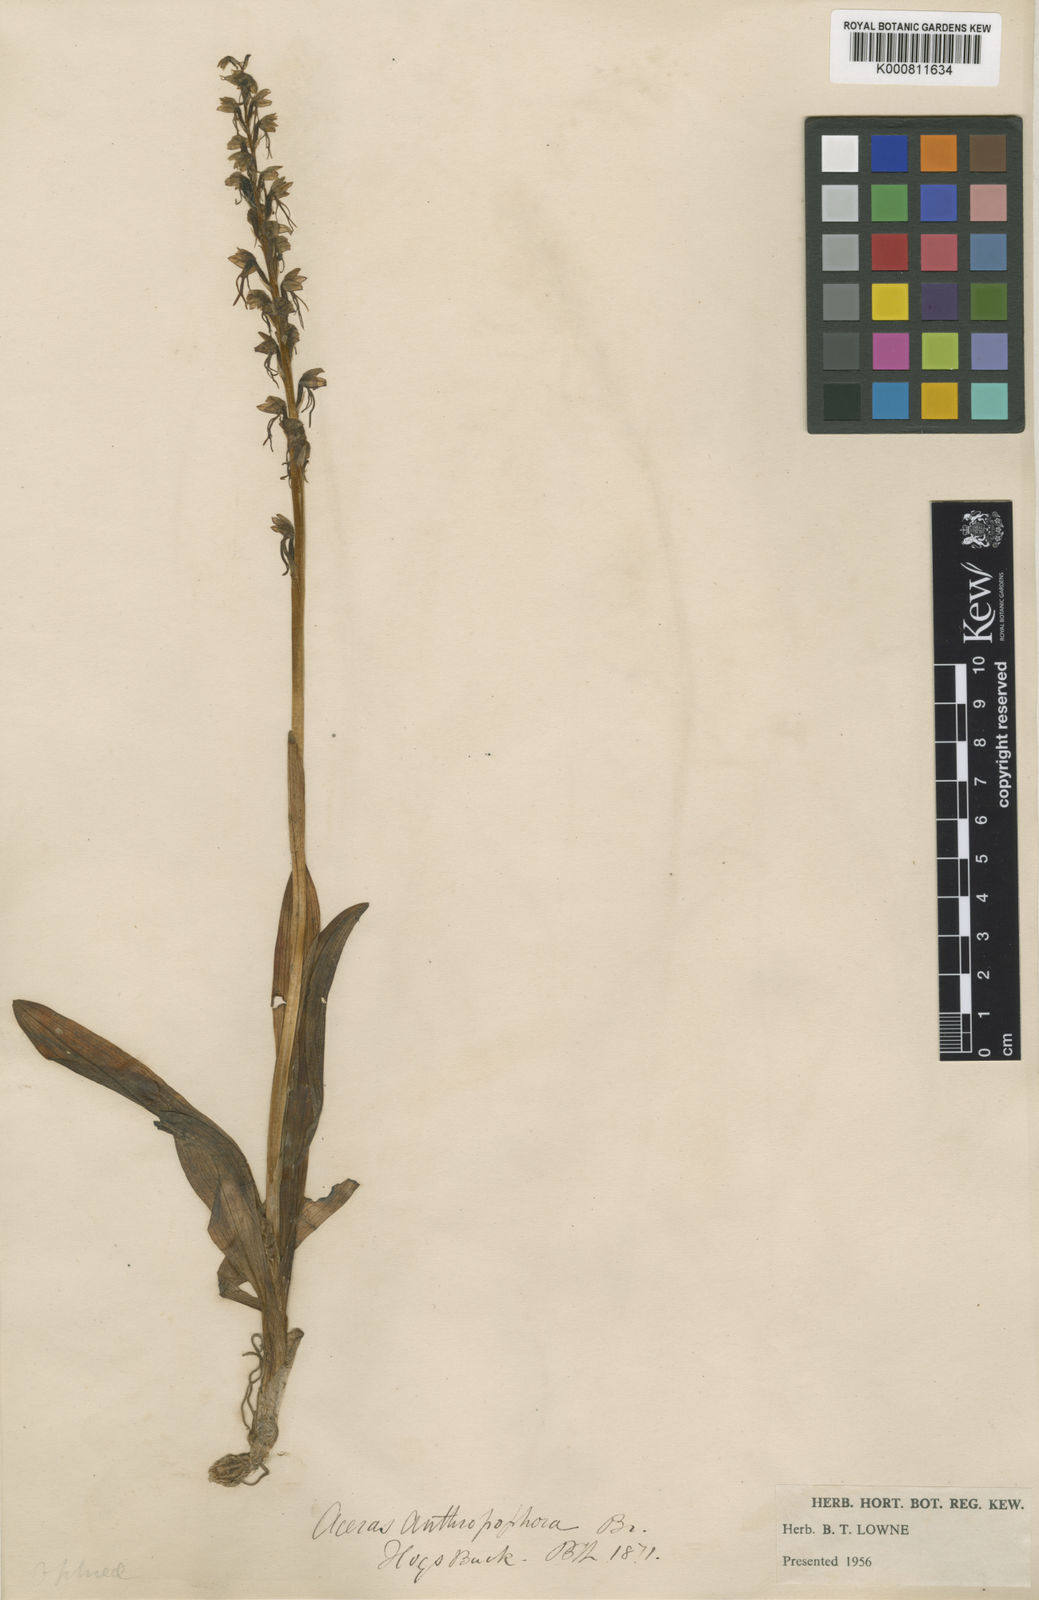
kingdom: Plantae
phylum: Tracheophyta
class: Liliopsida
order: Asparagales
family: Orchidaceae
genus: Orchis
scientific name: Orchis
